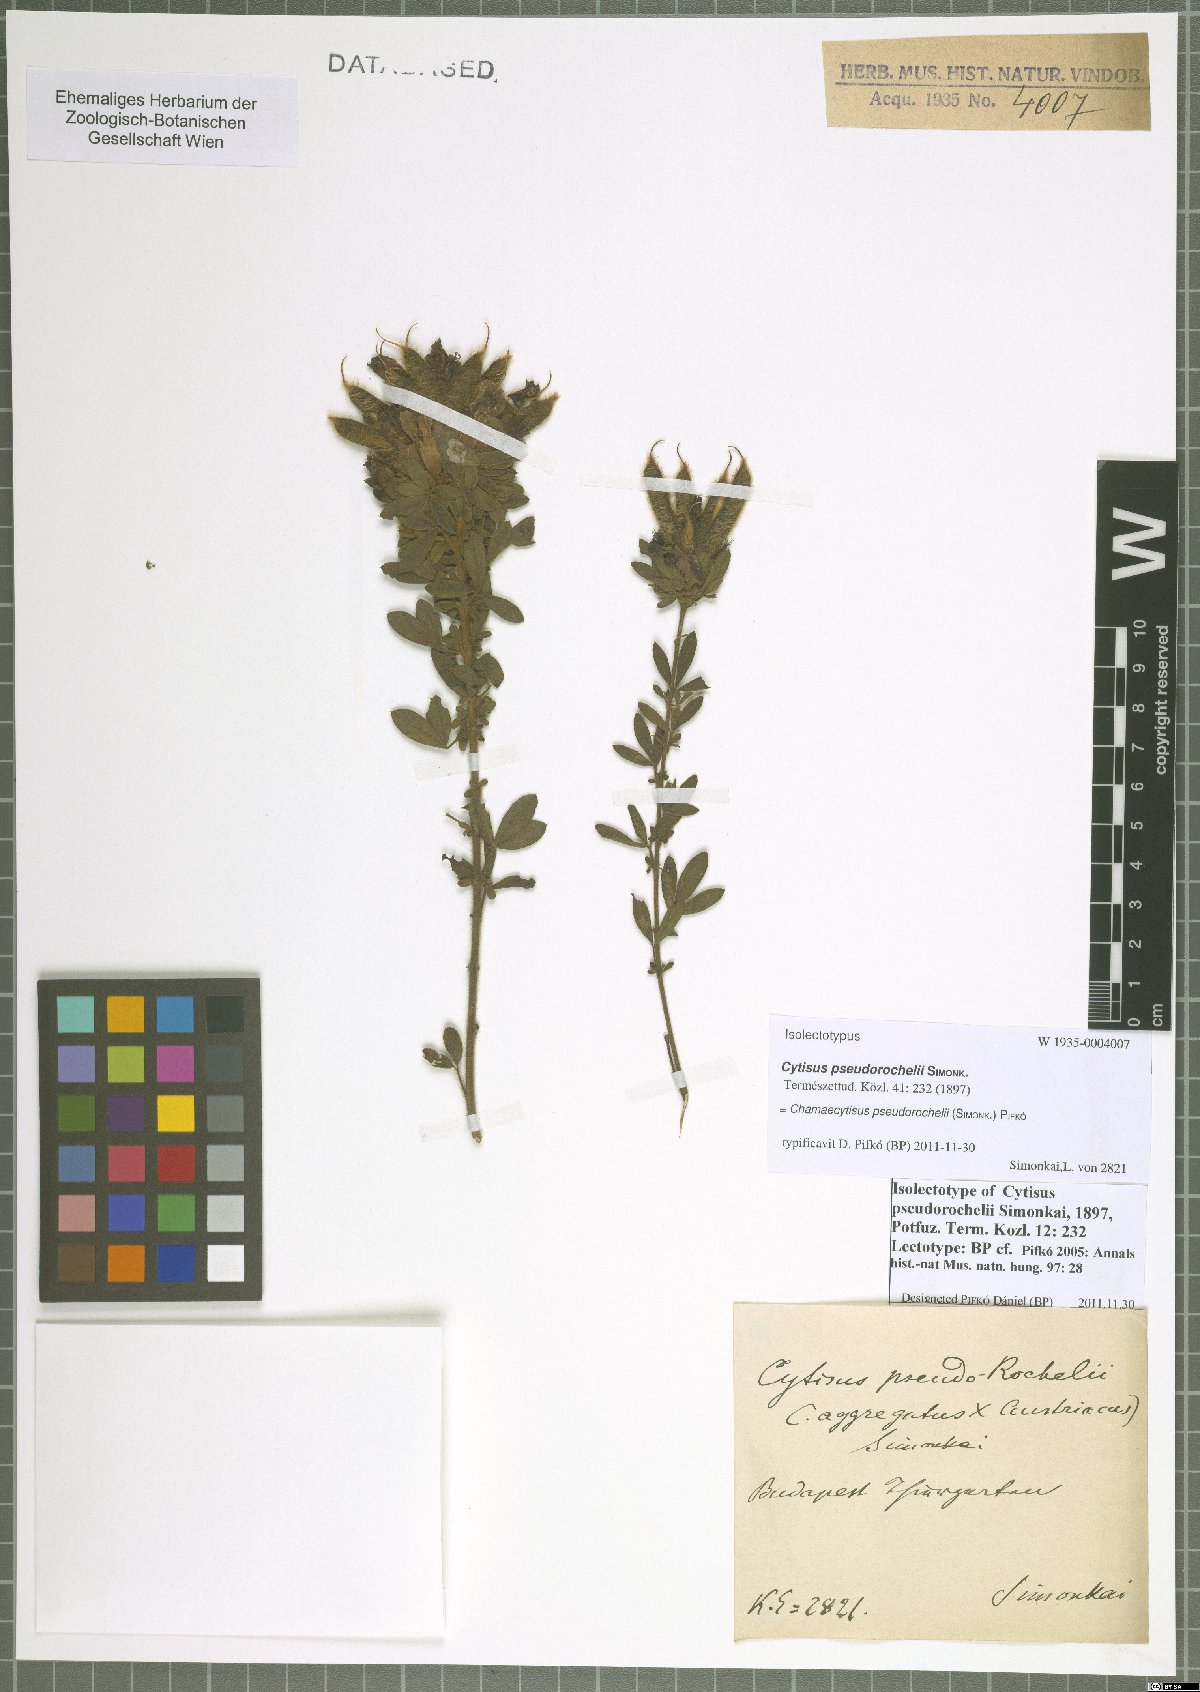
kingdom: Plantae
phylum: Tracheophyta
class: Magnoliopsida
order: Fabales
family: Fabaceae
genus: Chamaecytisus
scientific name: Chamaecytisus pseudorochelii
